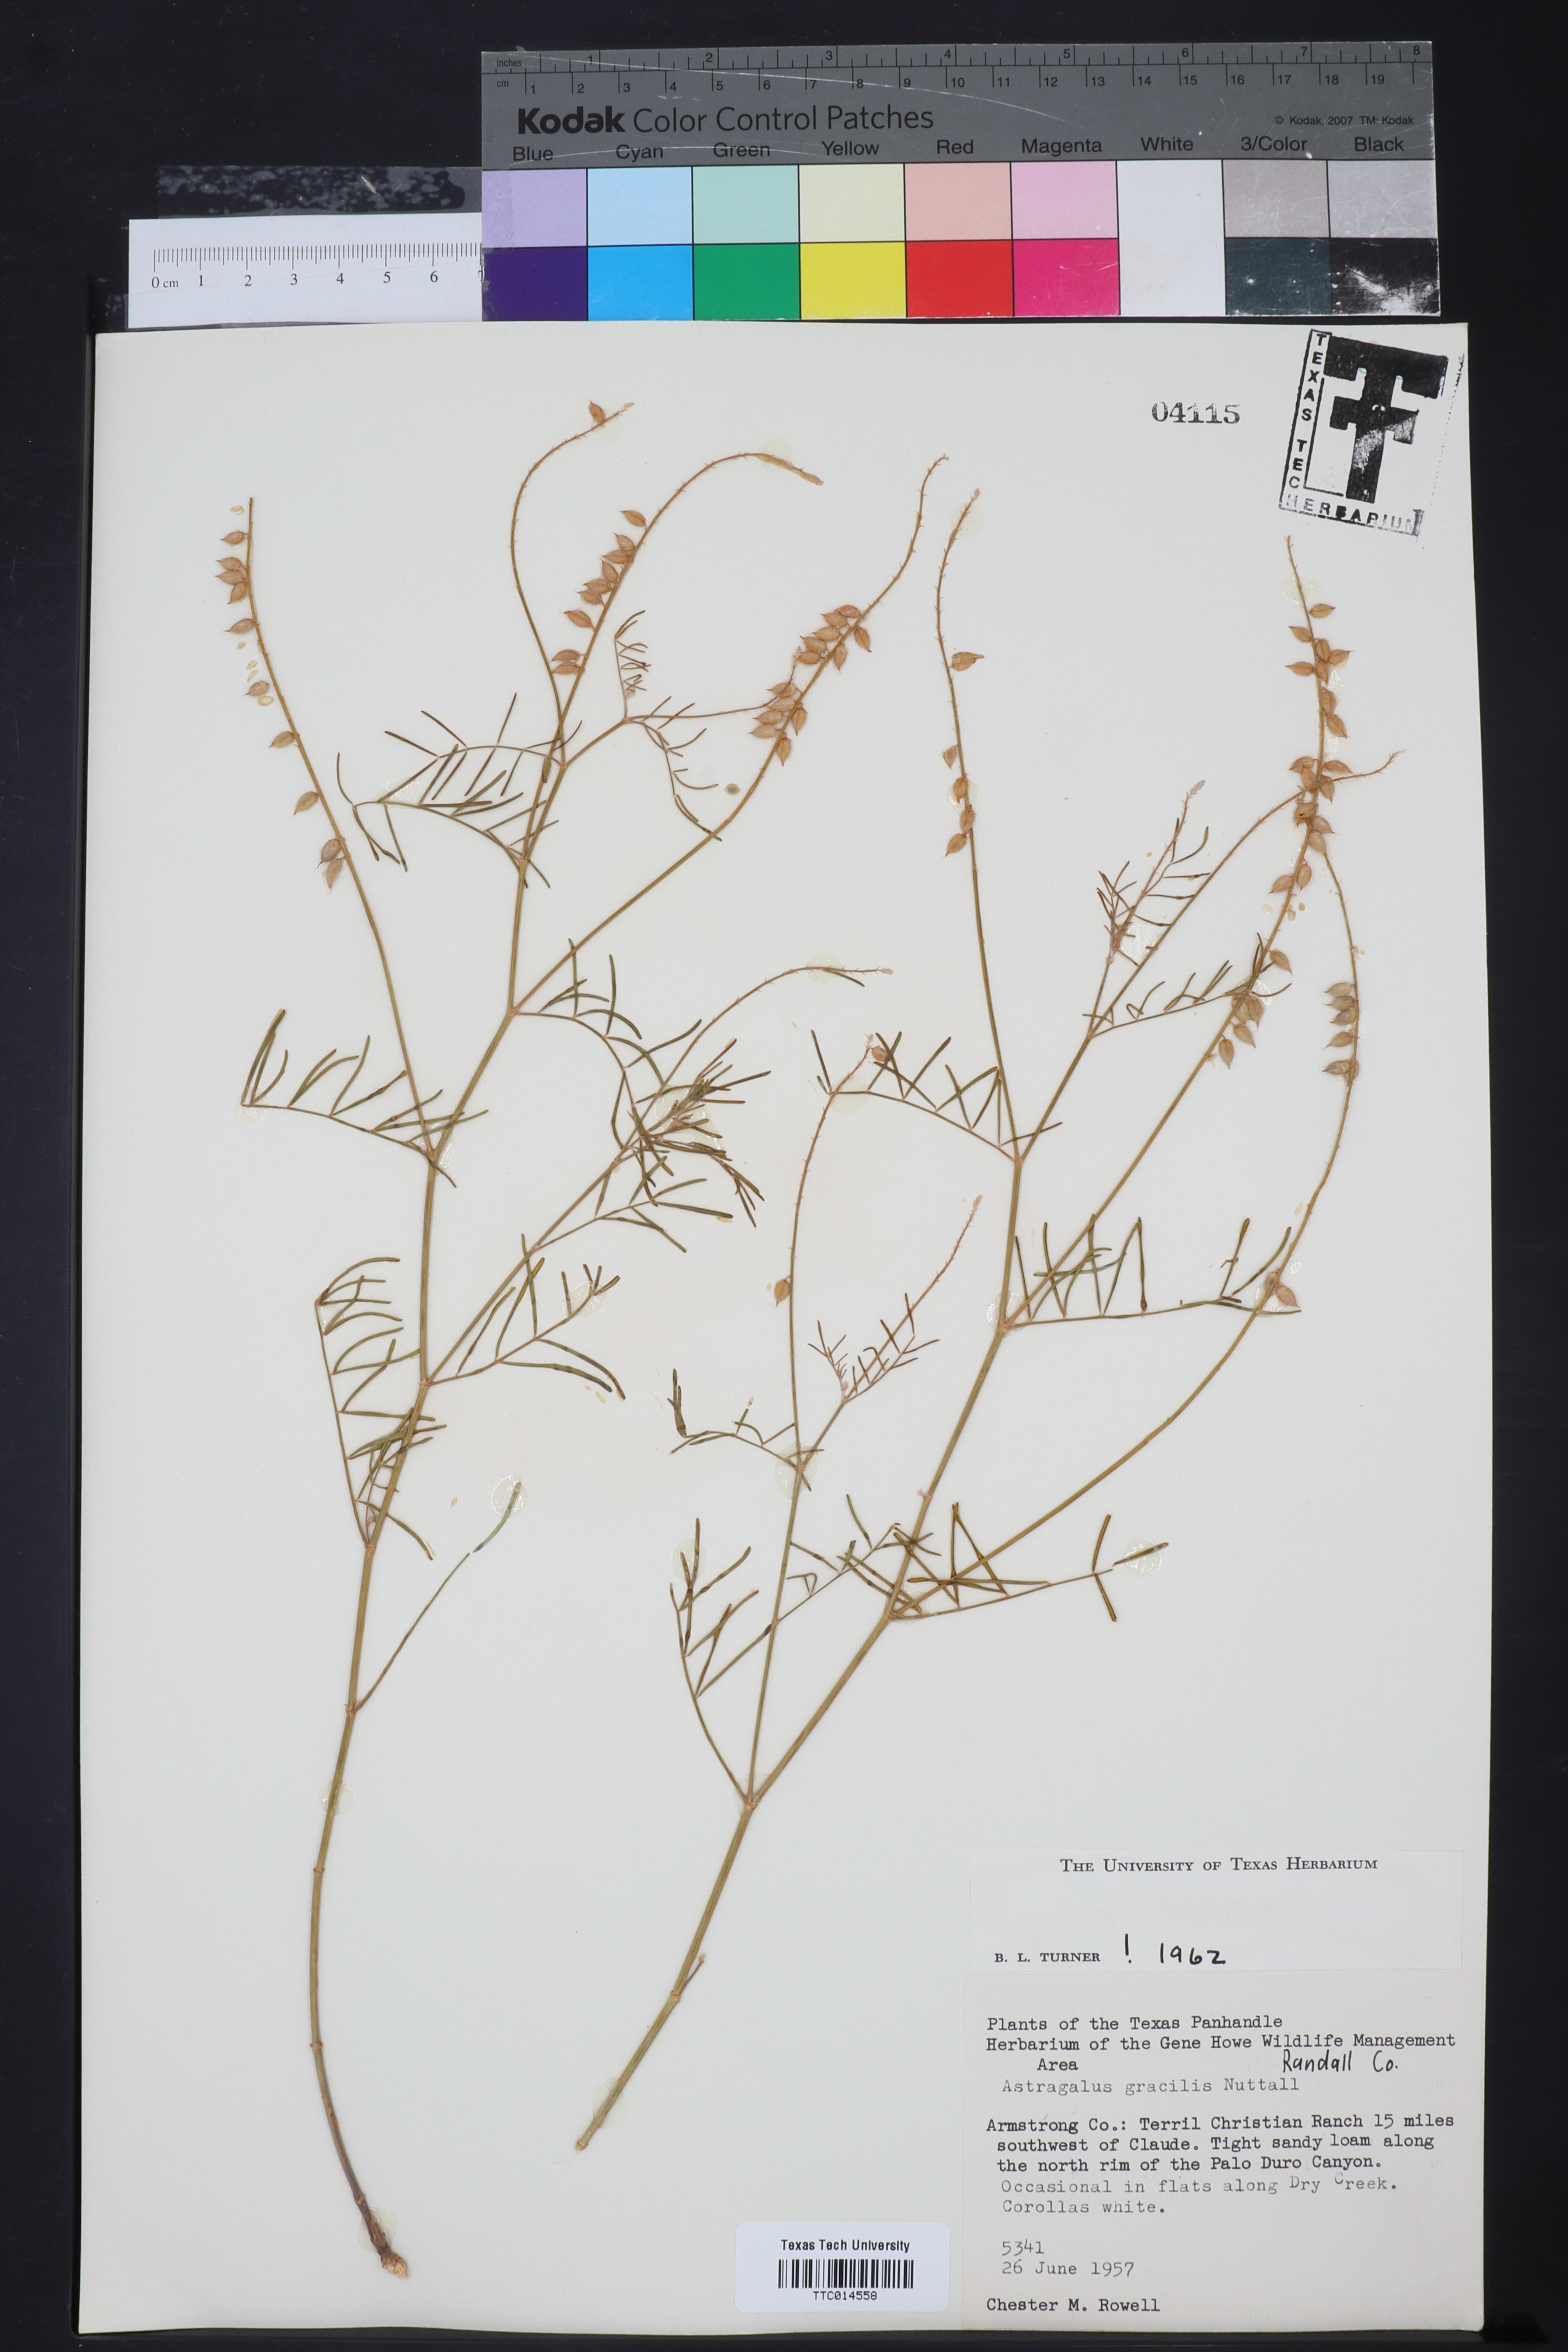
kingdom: Plantae
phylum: Tracheophyta
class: Magnoliopsida
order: Fabales
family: Fabaceae
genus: Astragalus
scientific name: Astragalus gracilis
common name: Slender milk-vetch
